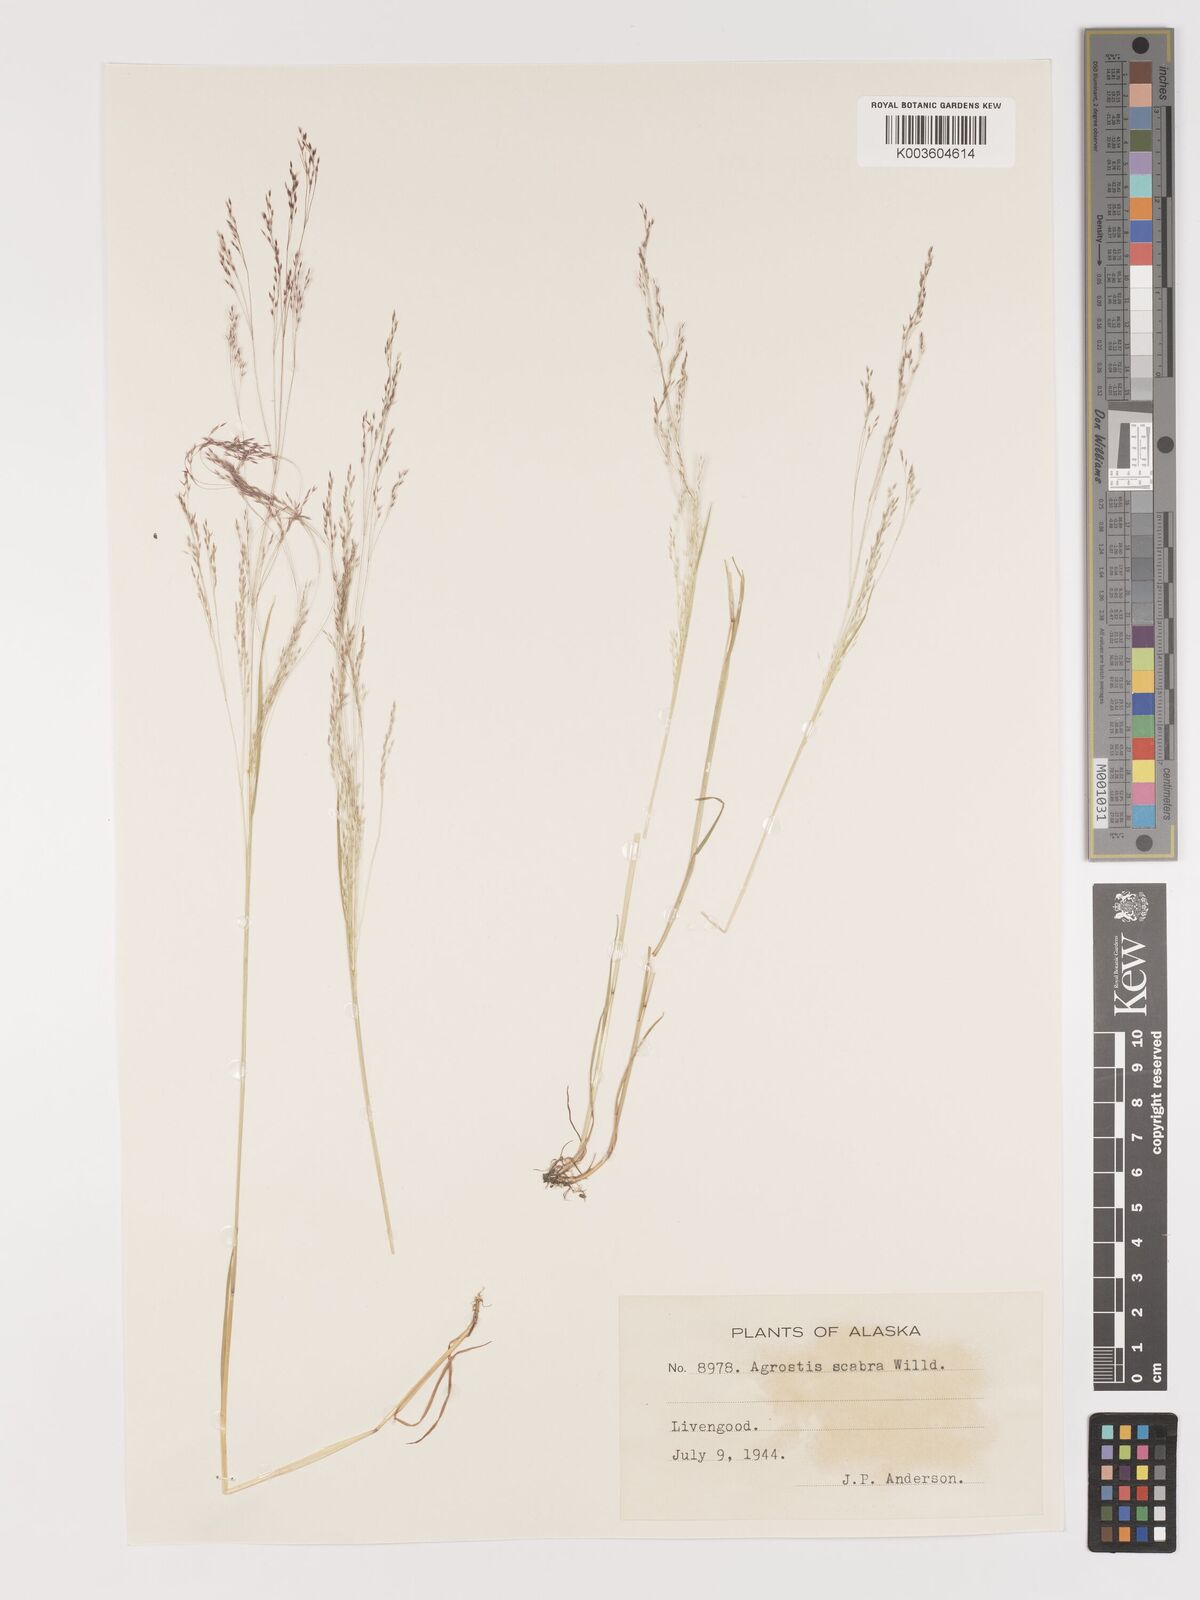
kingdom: Plantae
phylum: Tracheophyta
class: Liliopsida
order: Poales
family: Poaceae
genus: Agrostis
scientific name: Agrostis
